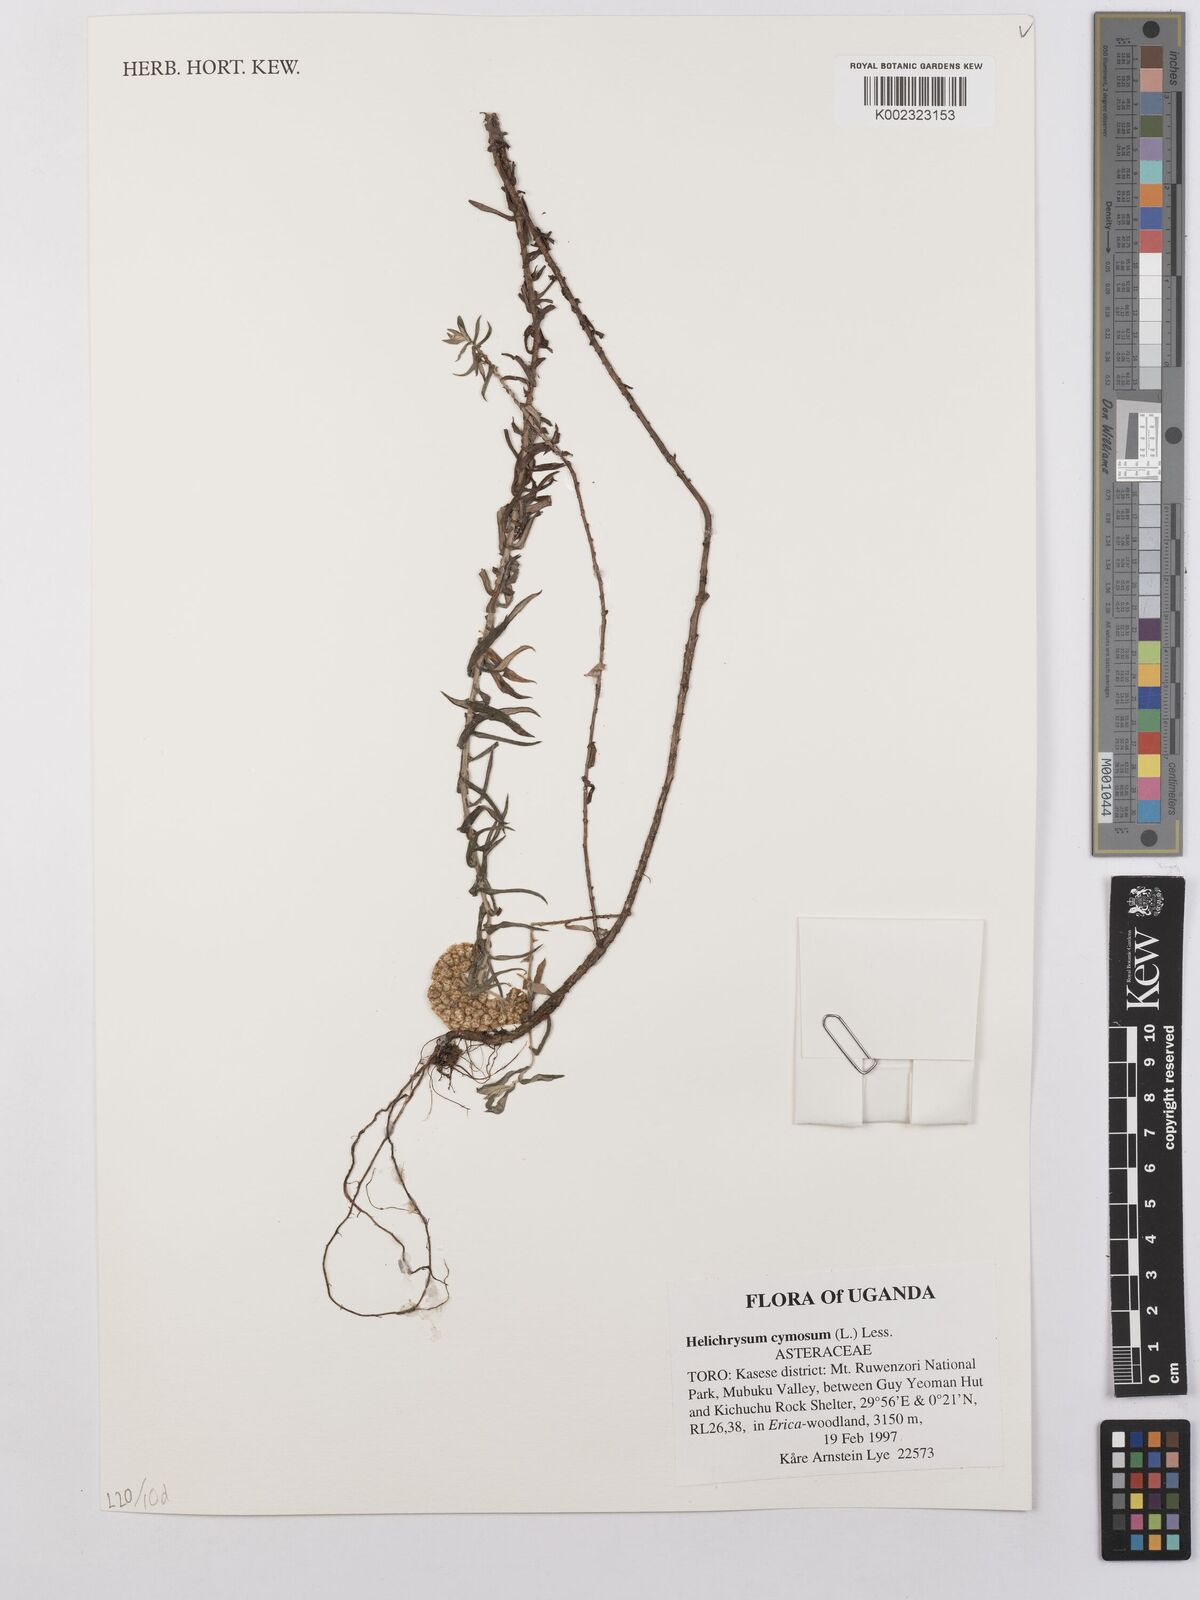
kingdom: Plantae
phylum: Tracheophyta
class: Magnoliopsida
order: Asterales
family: Asteraceae
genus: Helichrysum
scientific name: Helichrysum forskahlii
